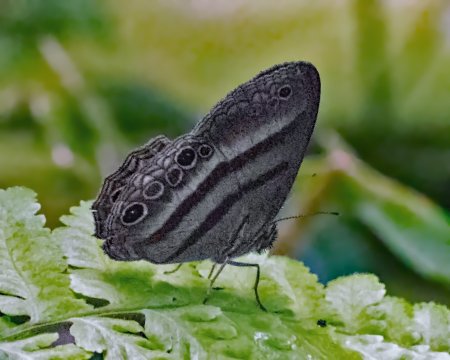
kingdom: Animalia
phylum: Arthropoda
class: Insecta
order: Lepidoptera
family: Nymphalidae
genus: Euptychia
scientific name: Euptychia myncea
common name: Cramer's Ringlet
